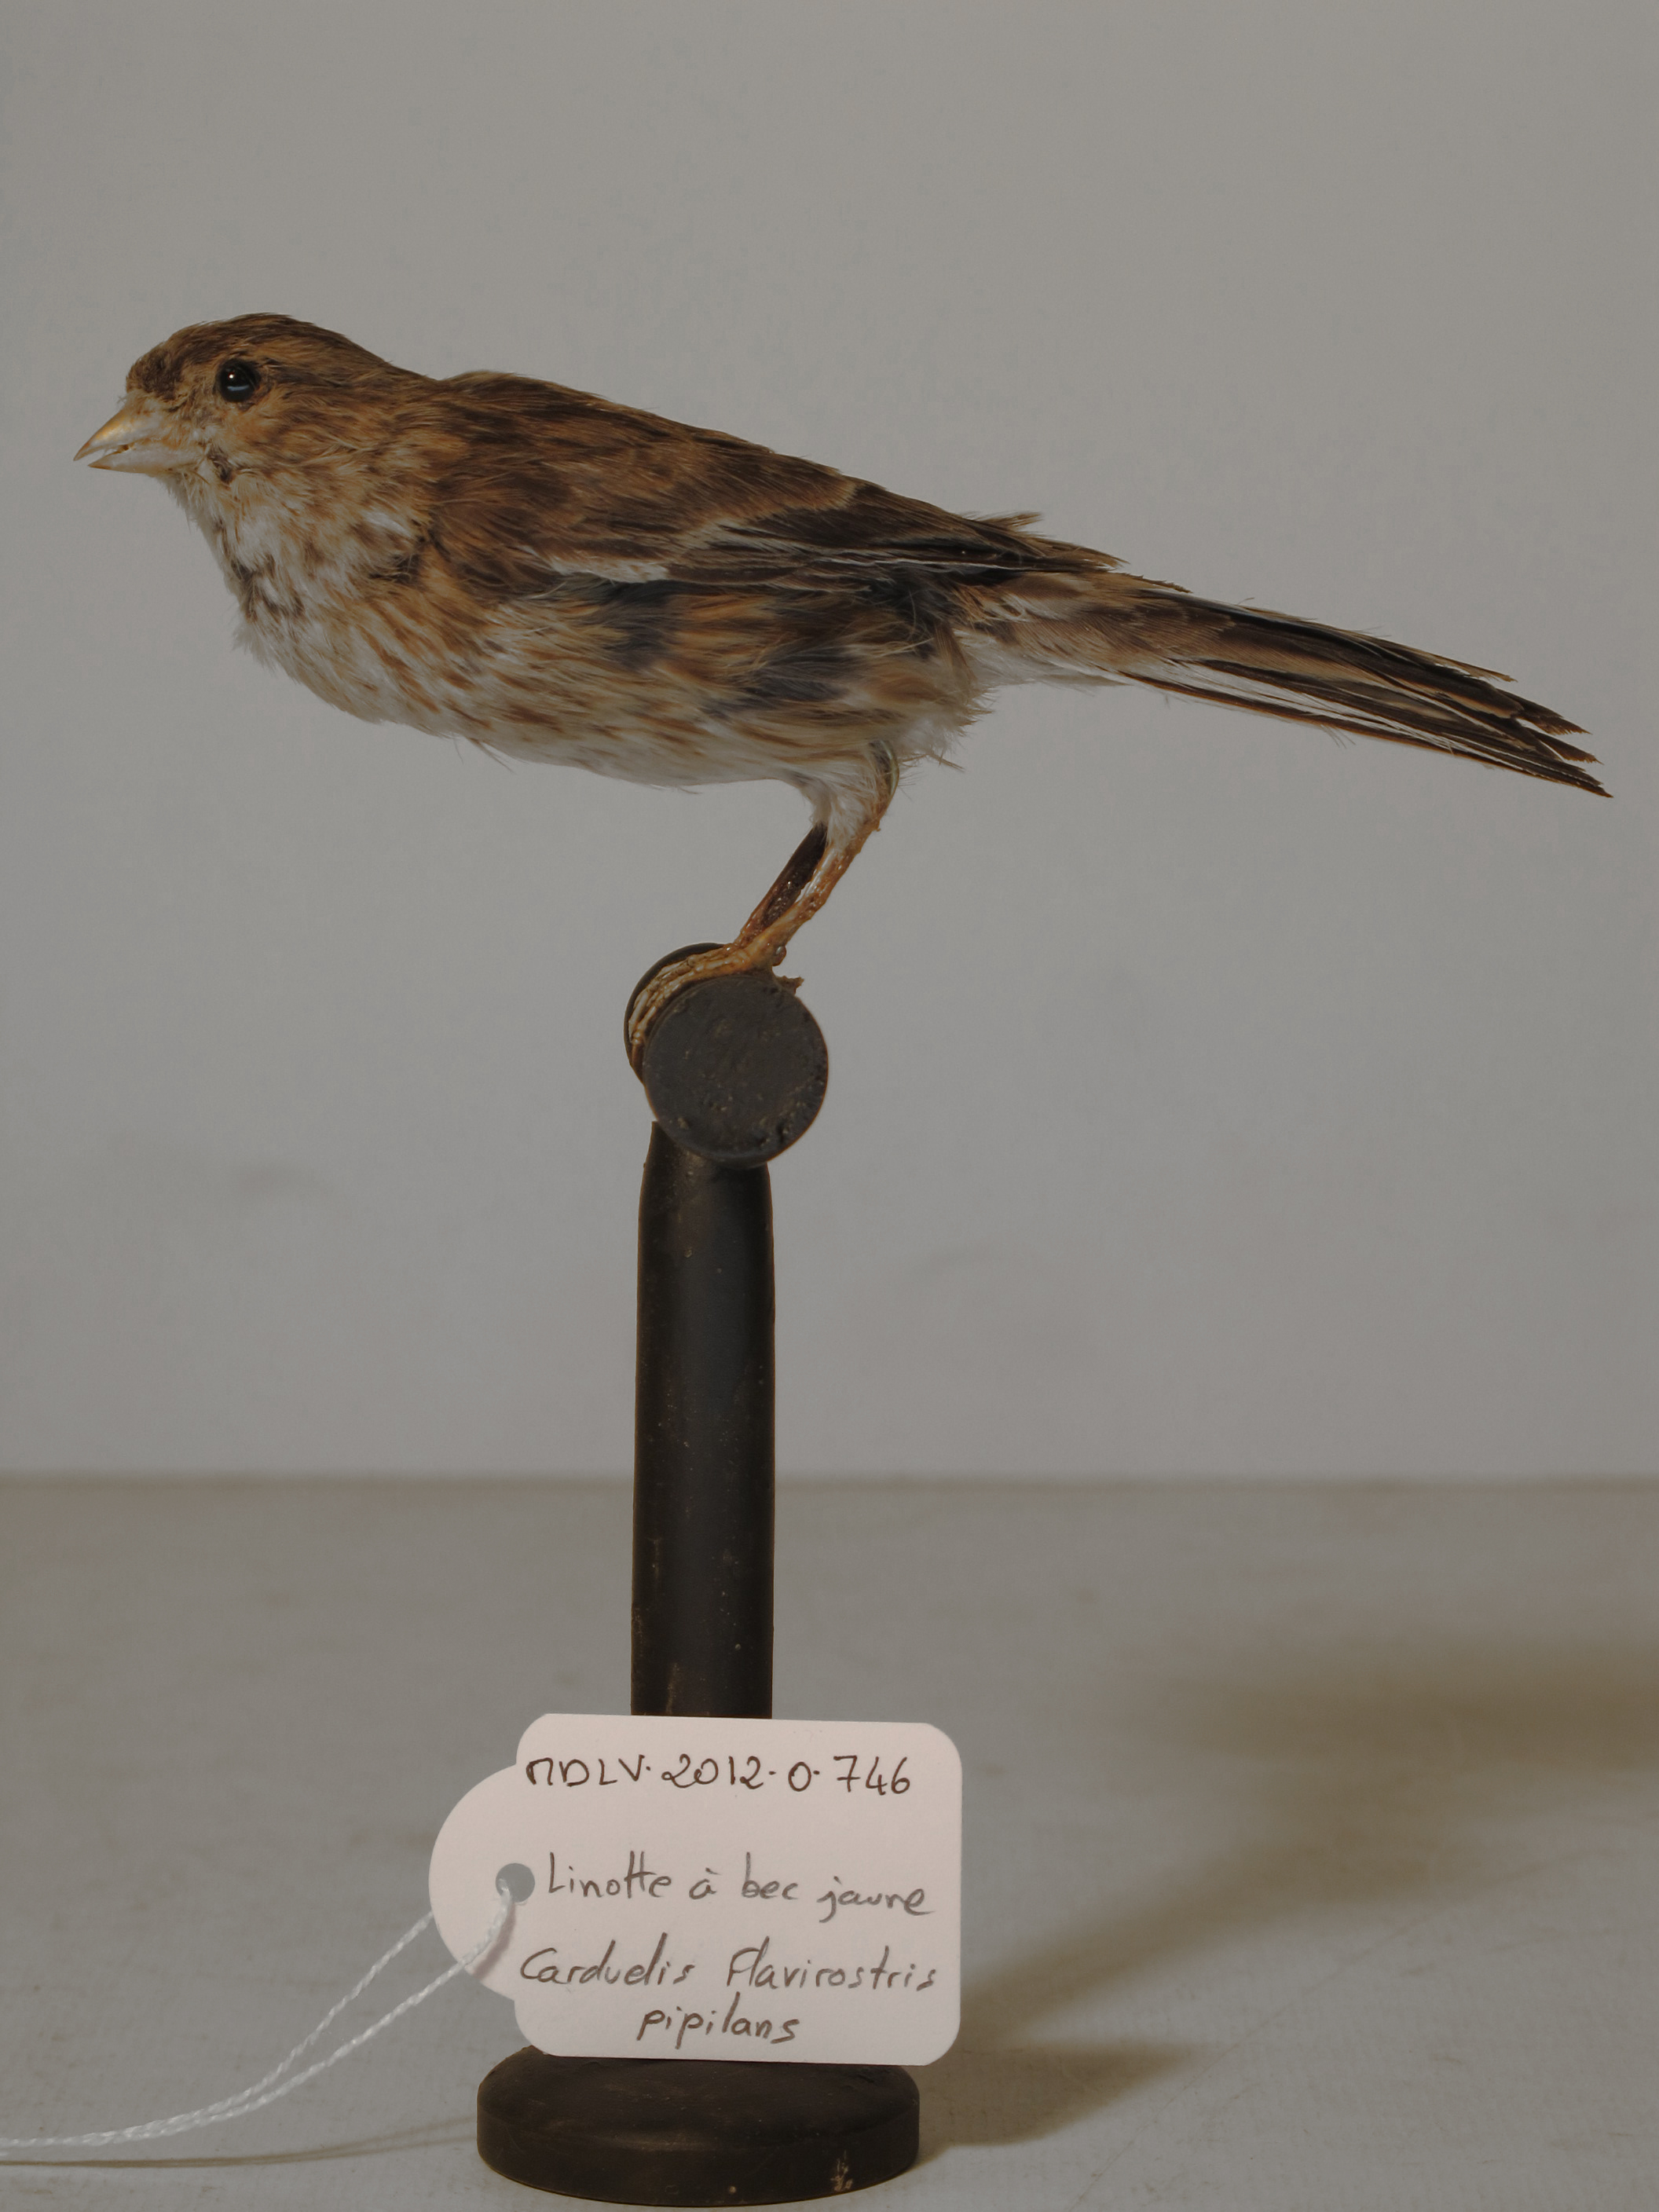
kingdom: Animalia
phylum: Chordata
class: Aves
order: Passeriformes
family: Fringillidae
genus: Linaria
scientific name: Linaria flavirostris
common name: Twite
